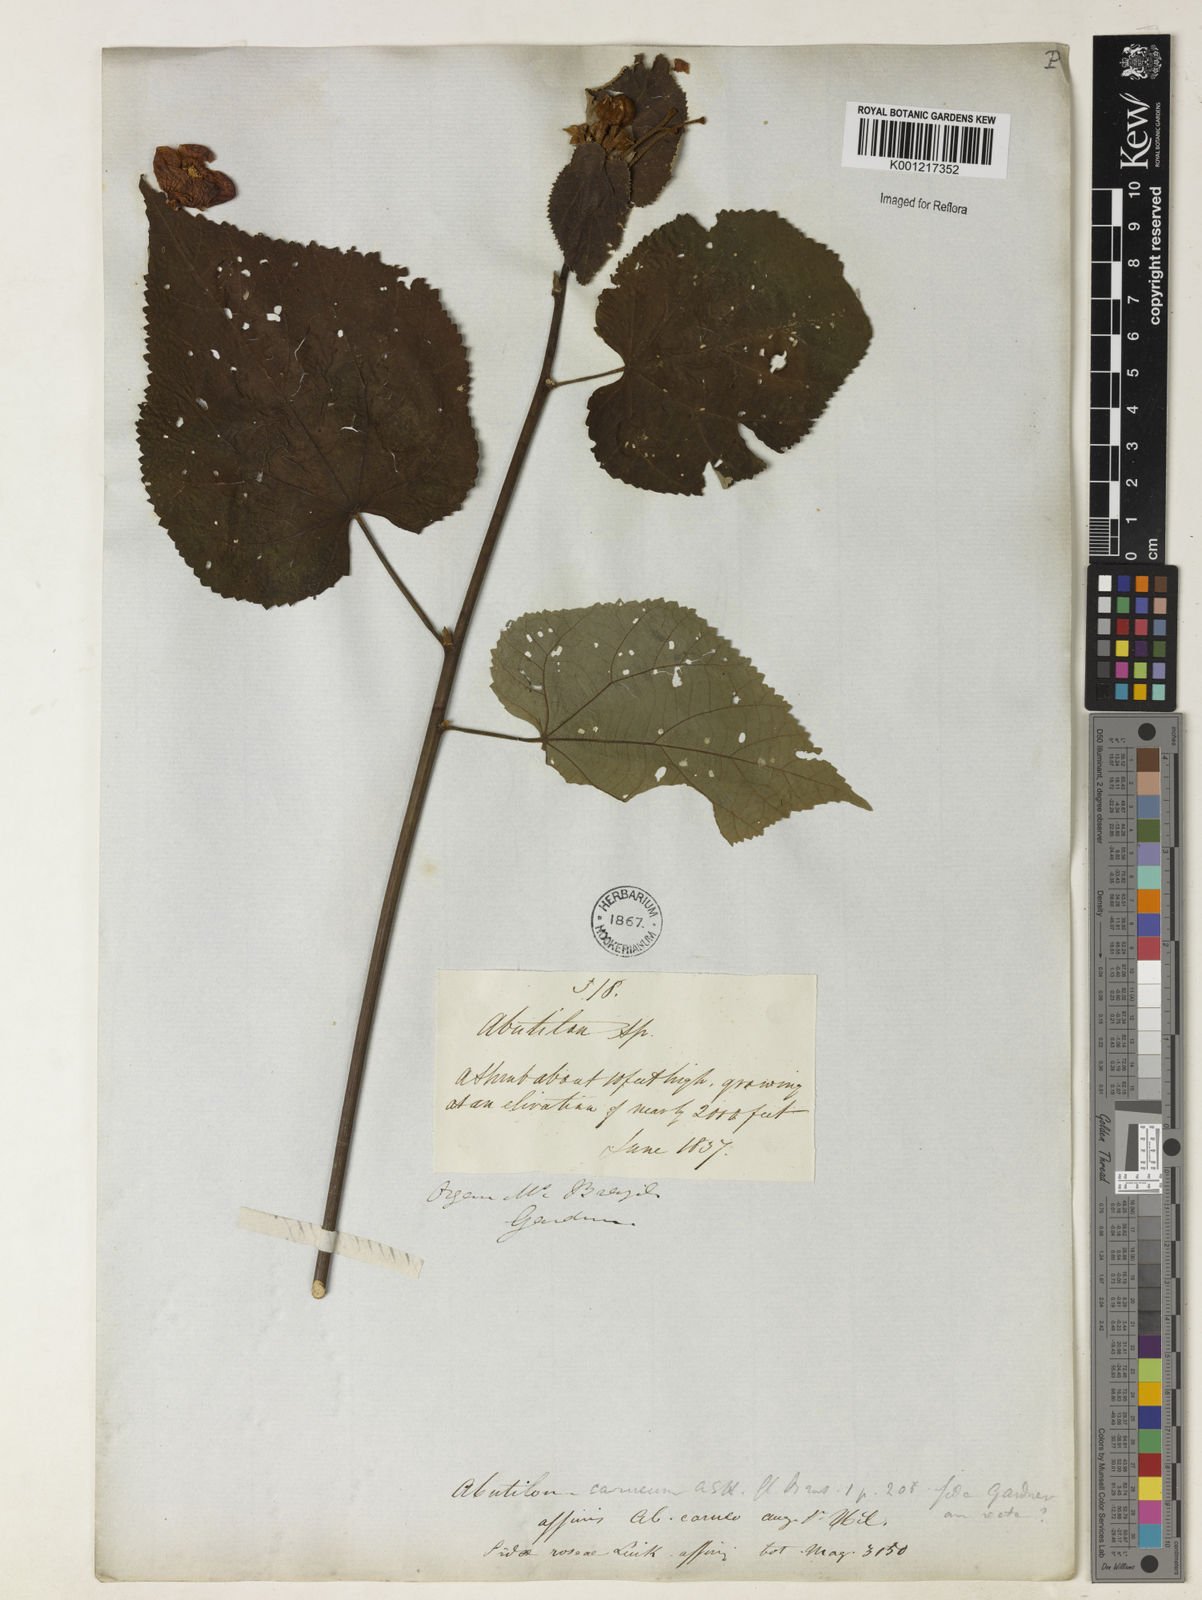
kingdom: Plantae
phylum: Tracheophyta
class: Magnoliopsida
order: Malvales
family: Malvaceae
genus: Bakeridesia
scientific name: Bakeridesia esculenta
